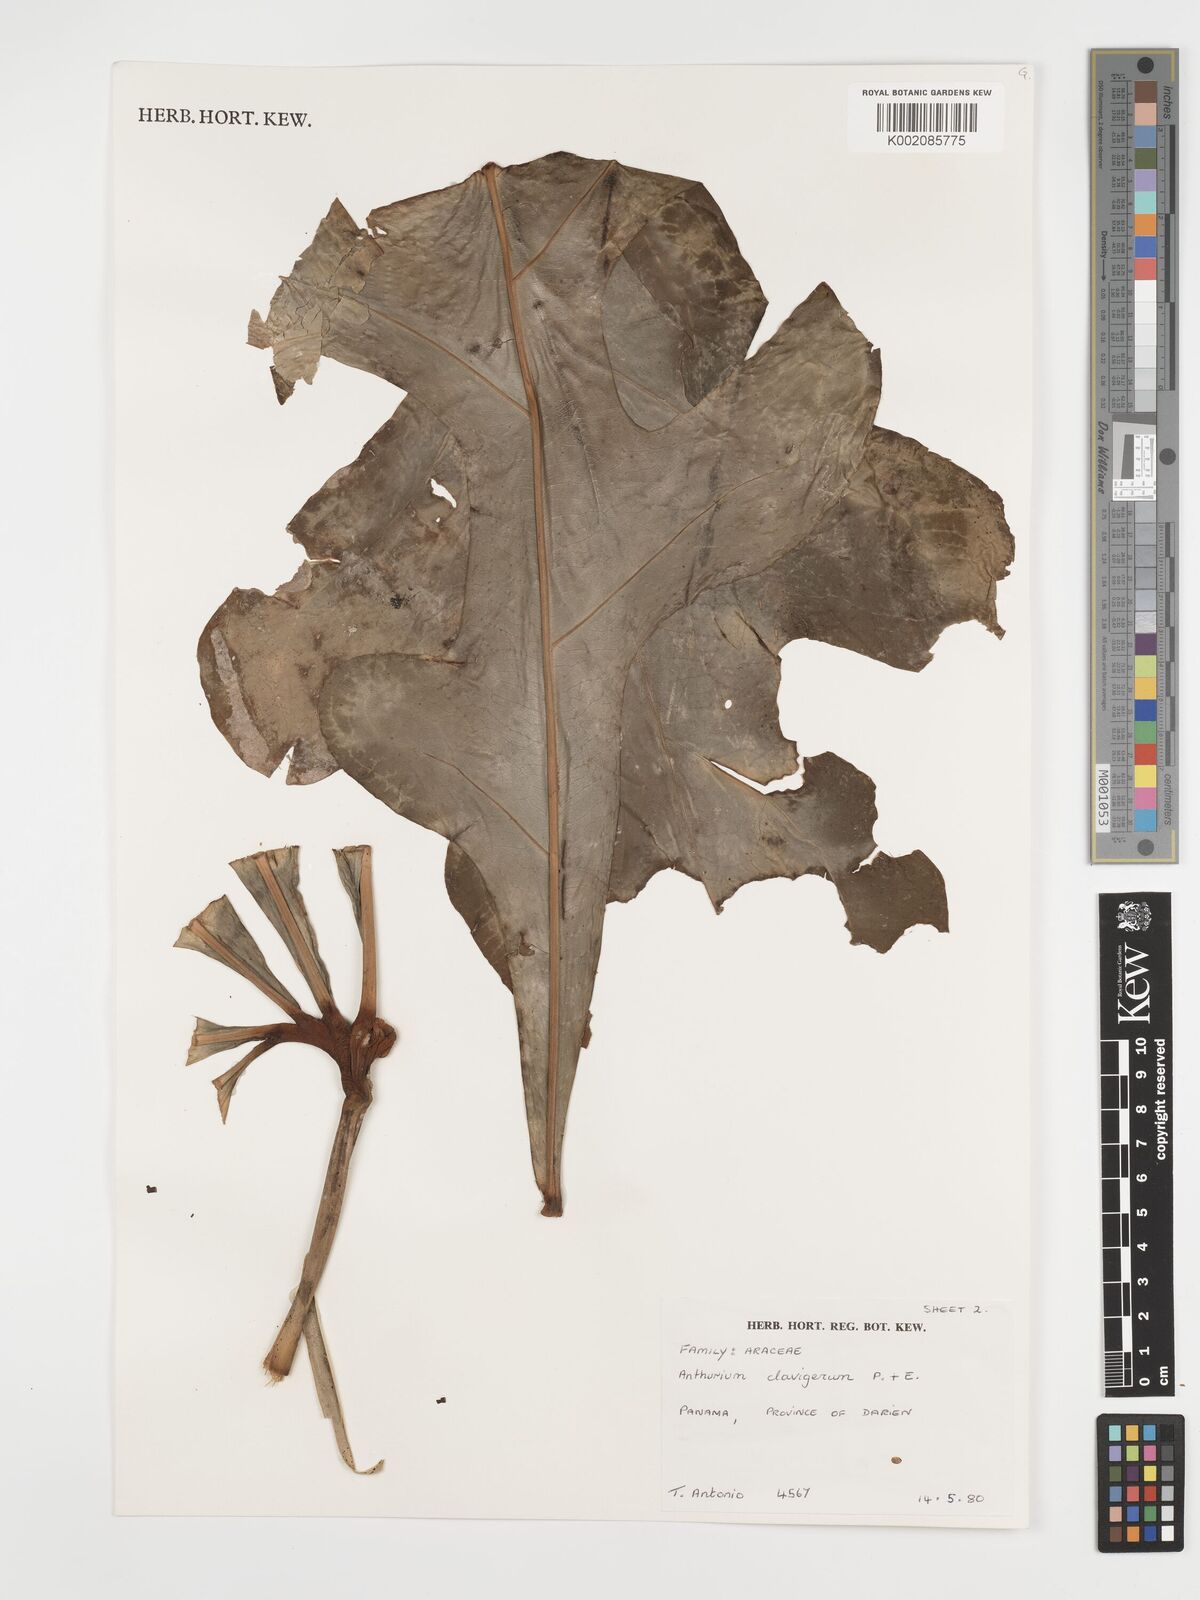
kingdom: Plantae
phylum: Tracheophyta
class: Liliopsida
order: Alismatales
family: Araceae
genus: Anthurium
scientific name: Anthurium clavigerum
